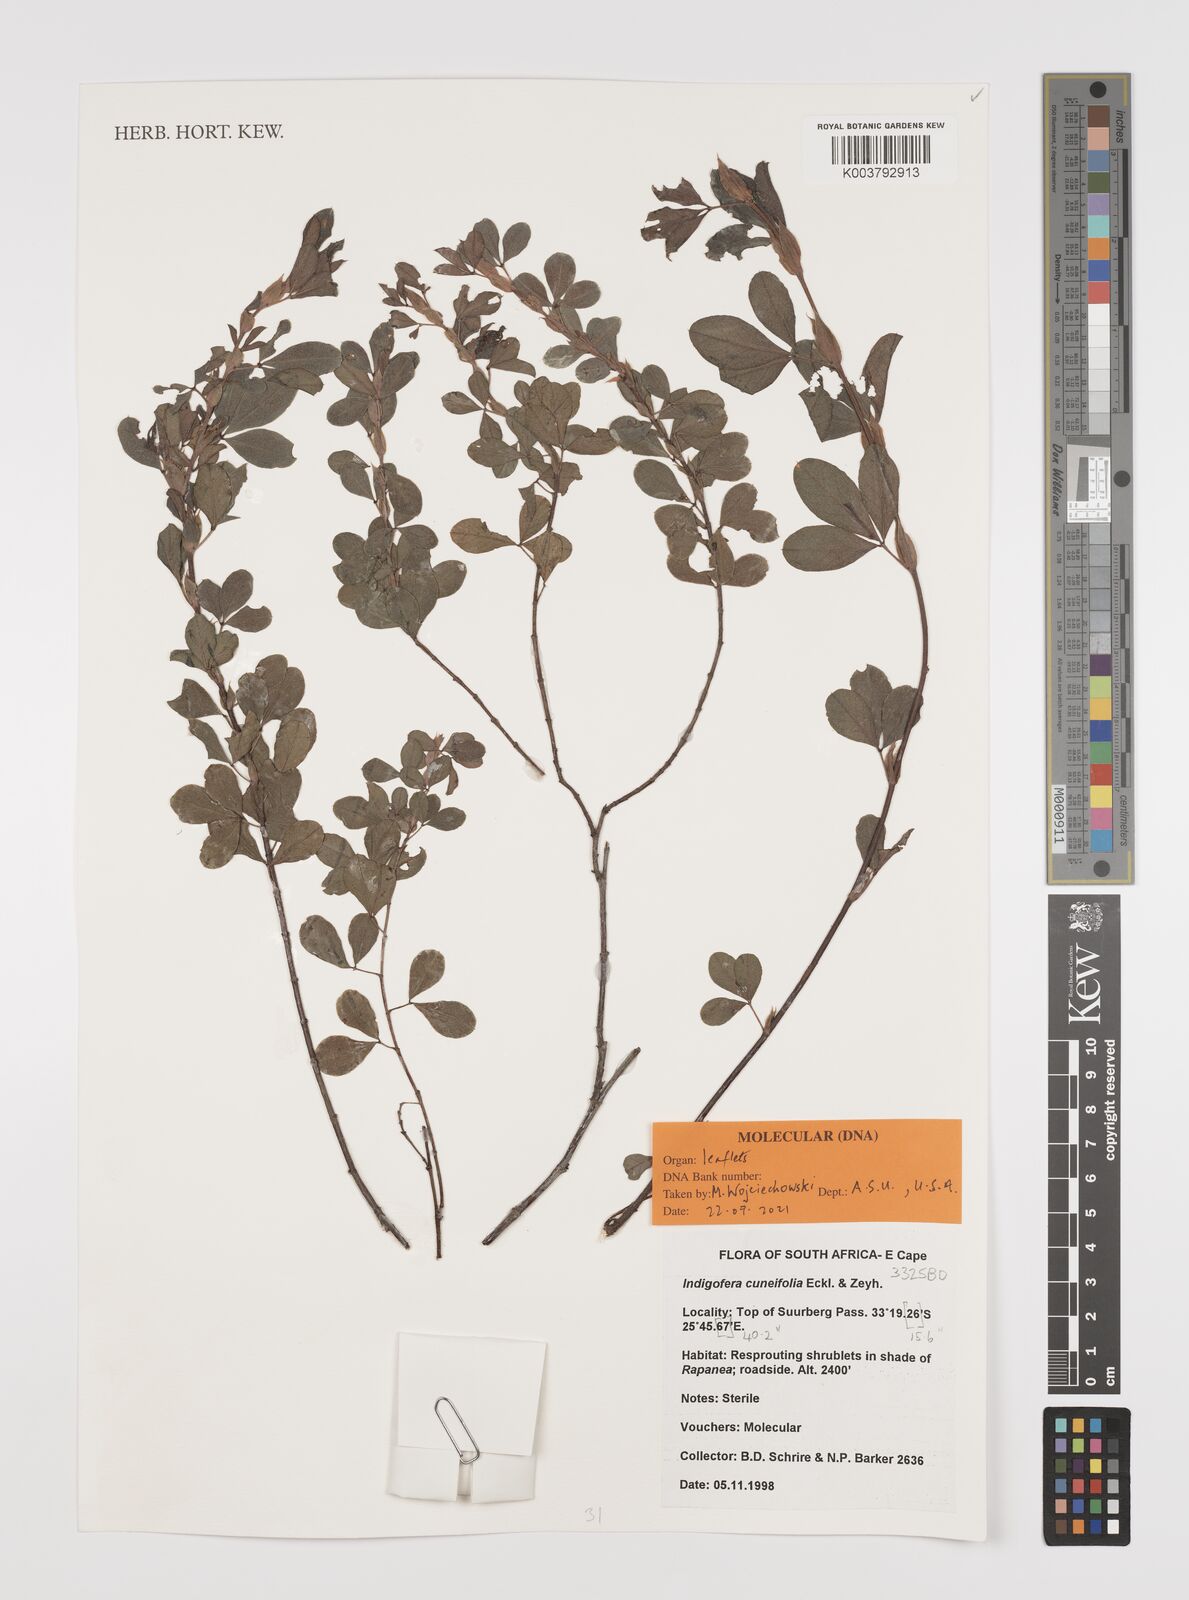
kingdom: Plantae
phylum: Tracheophyta
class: Magnoliopsida
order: Fabales
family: Fabaceae
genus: Indigofera
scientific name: Indigofera cuneifolia
